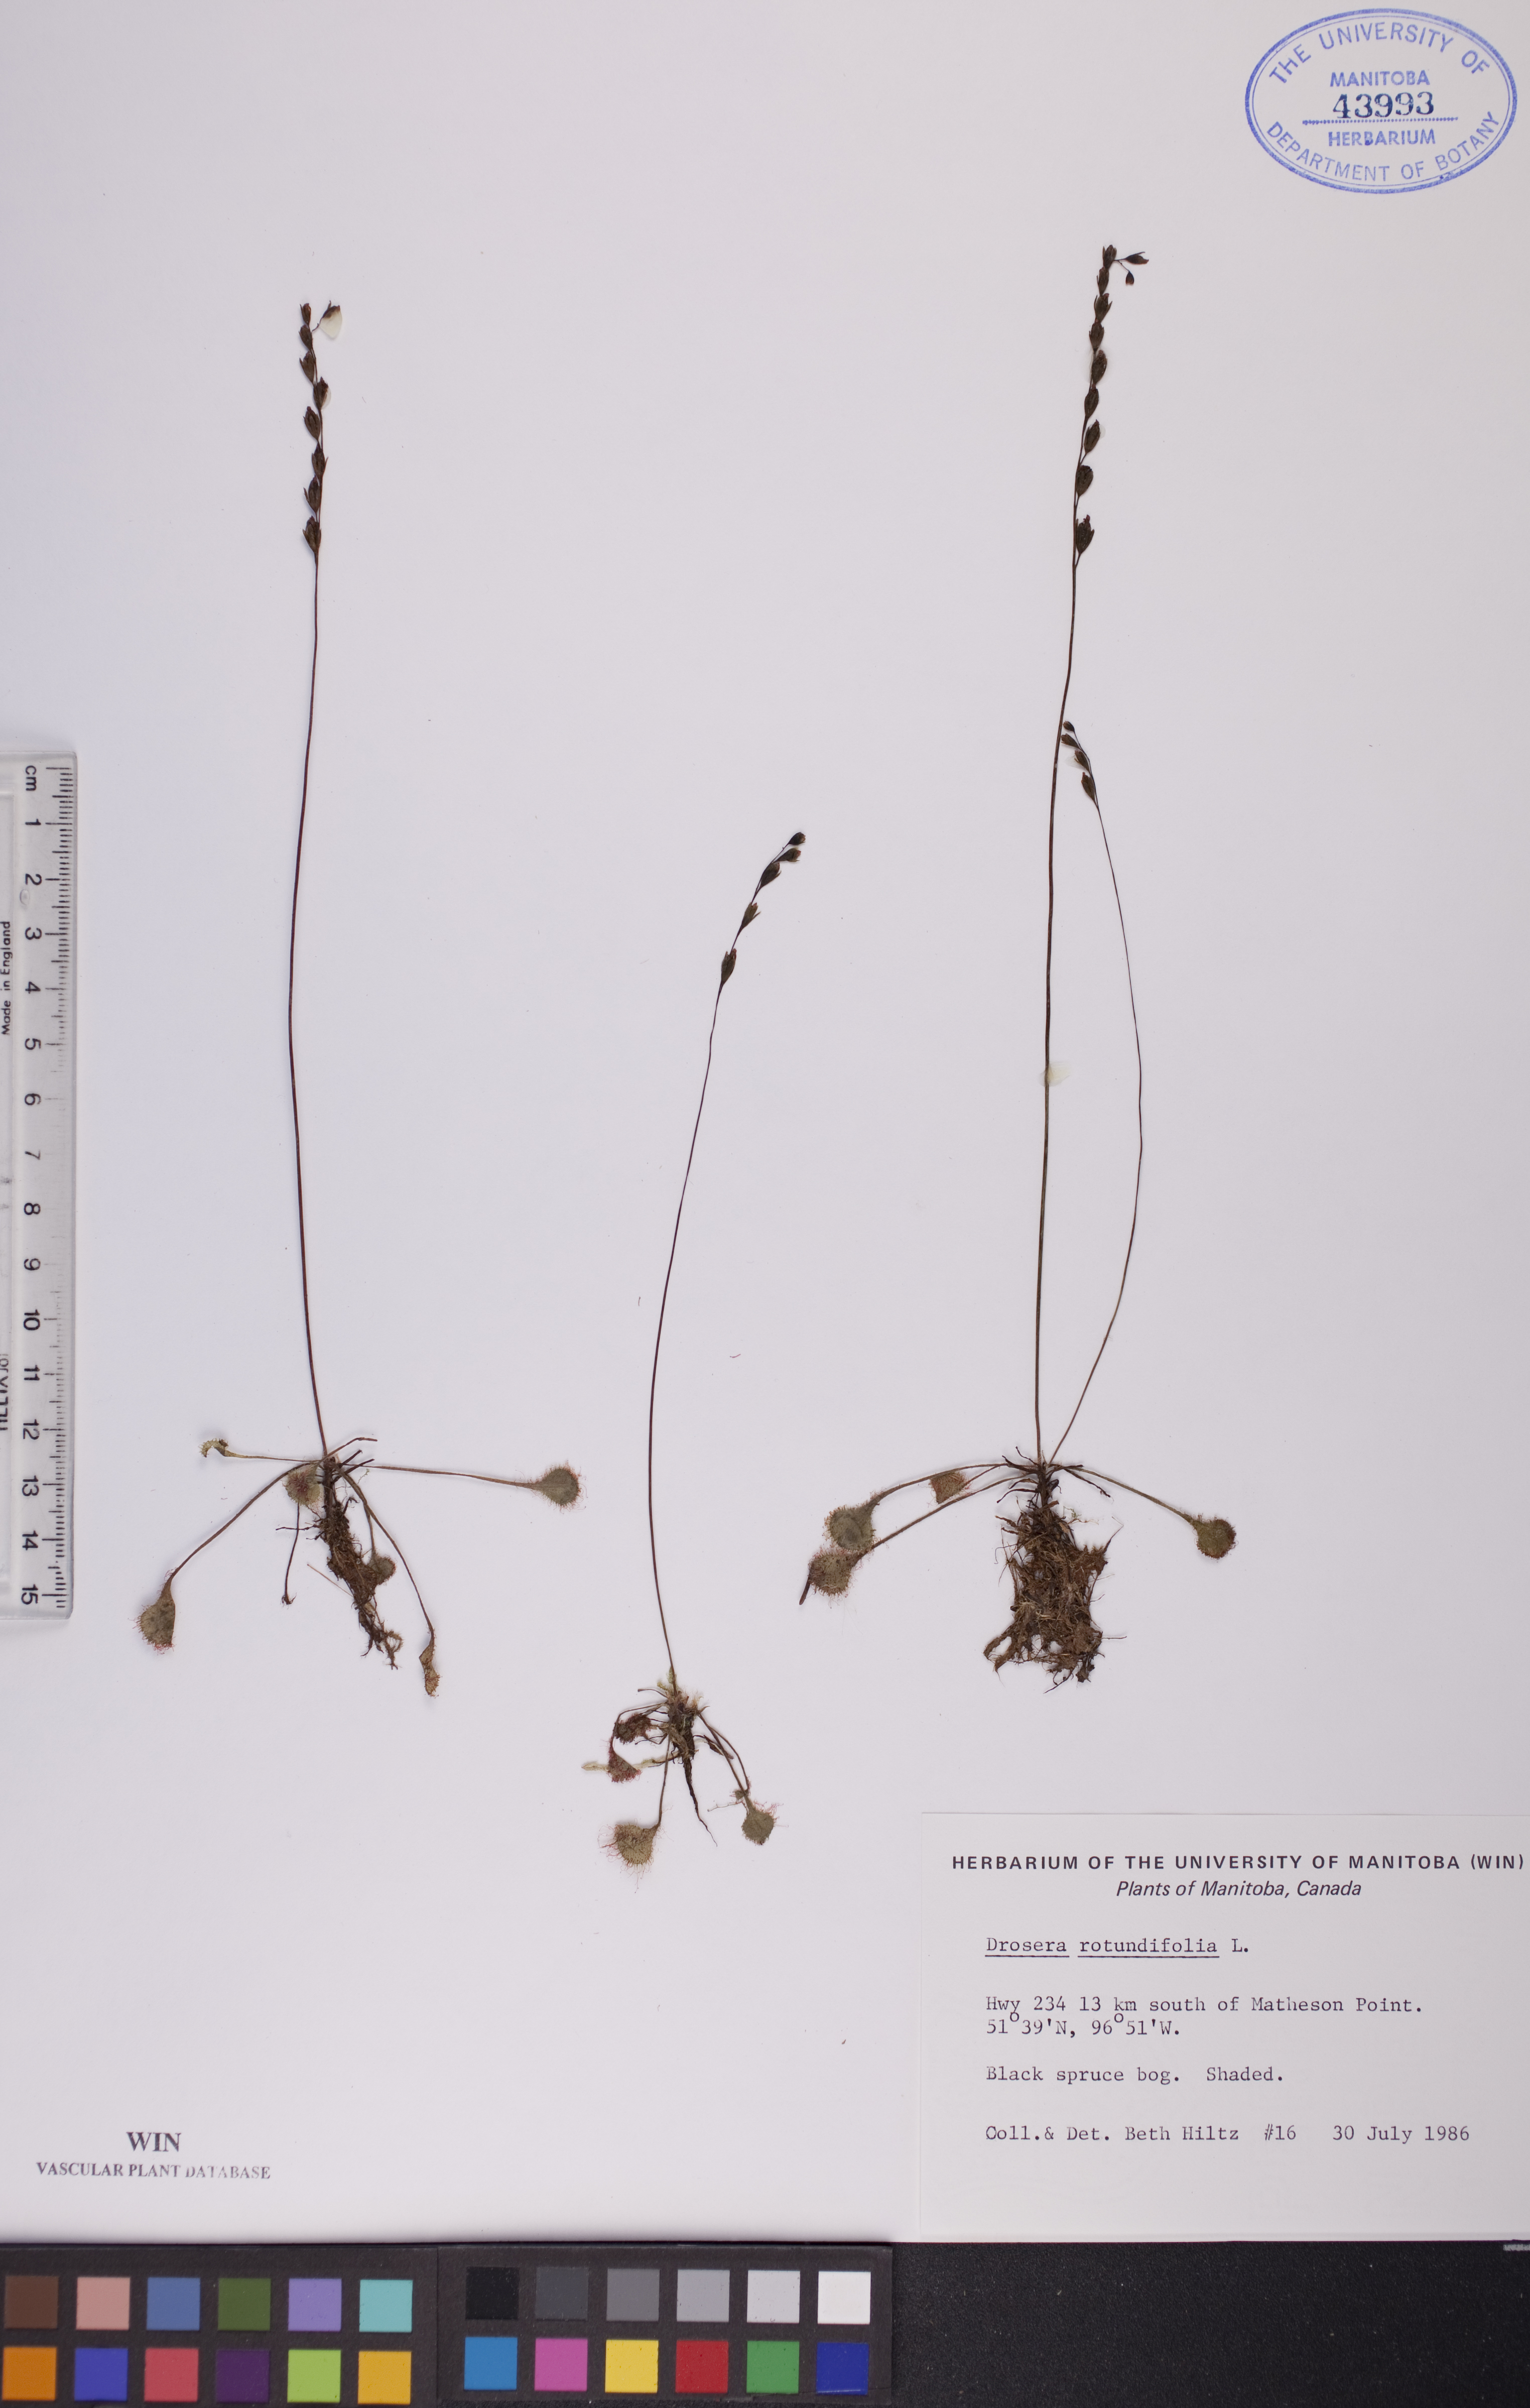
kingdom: Plantae
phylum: Tracheophyta
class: Magnoliopsida
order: Caryophyllales
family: Droseraceae
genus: Drosera
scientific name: Drosera rotundifolia
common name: Round-leaved sundew
